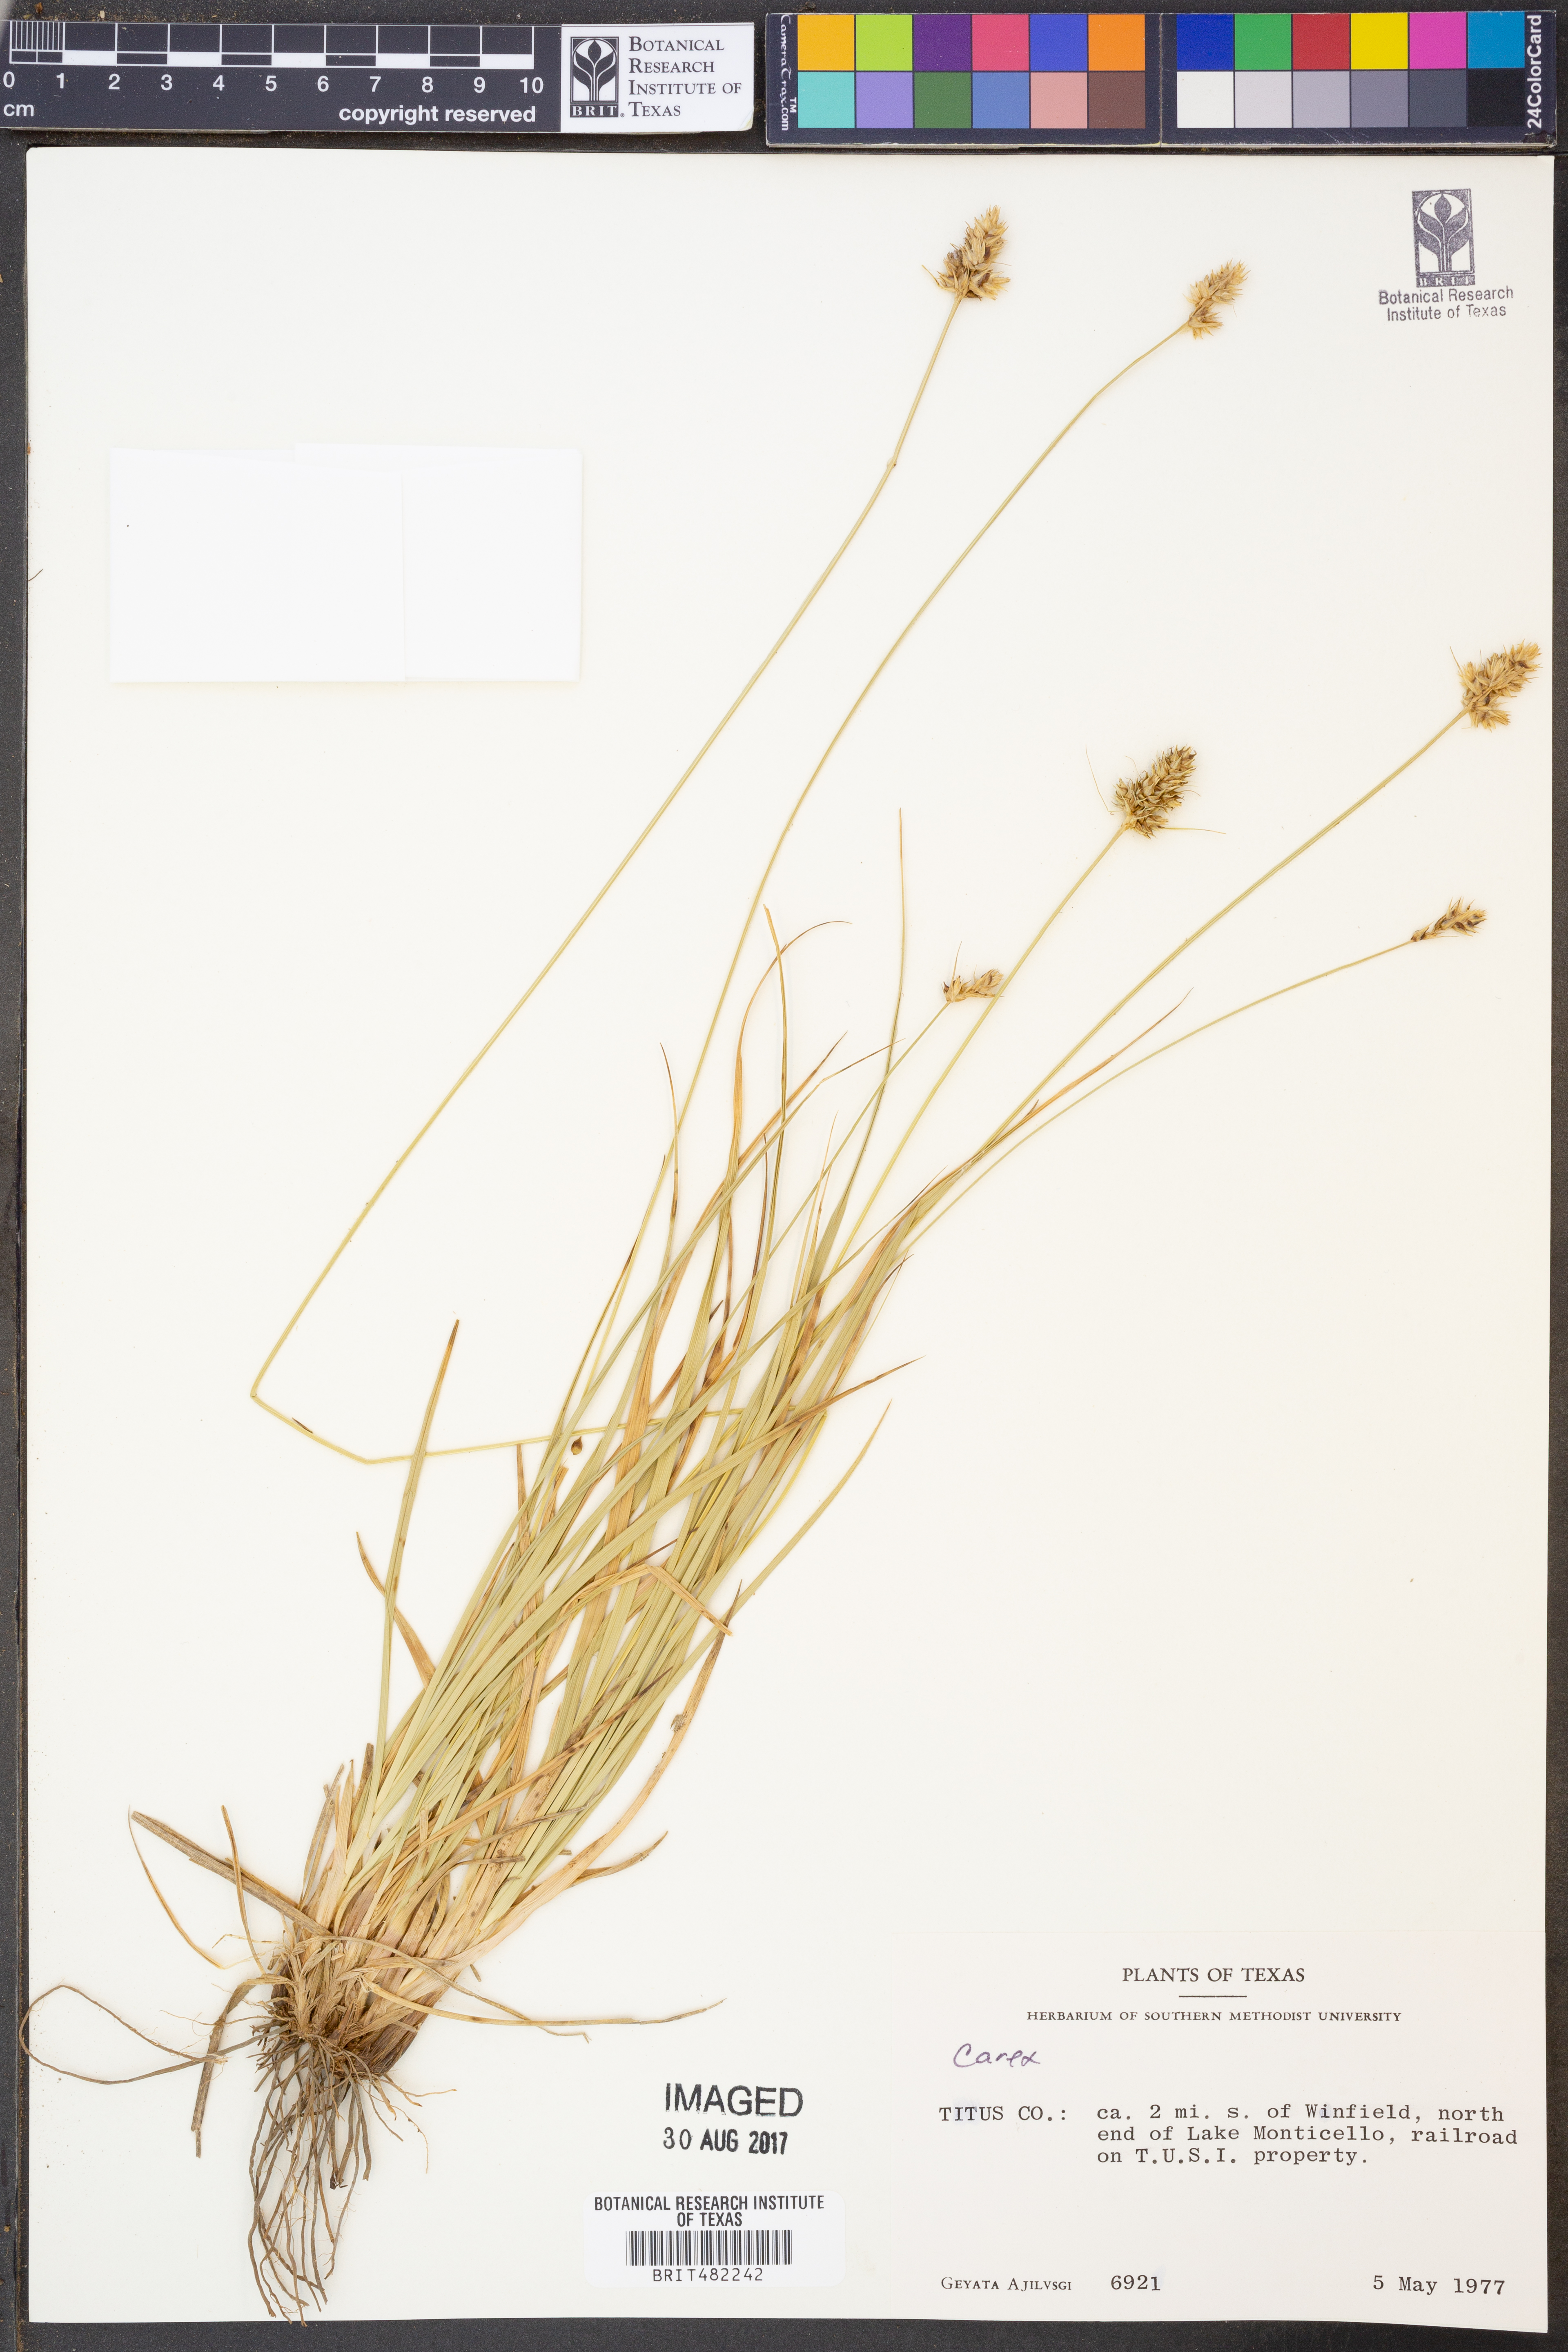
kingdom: Plantae
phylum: Tracheophyta
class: Liliopsida
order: Poales
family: Cyperaceae
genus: Carex
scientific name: Carex
